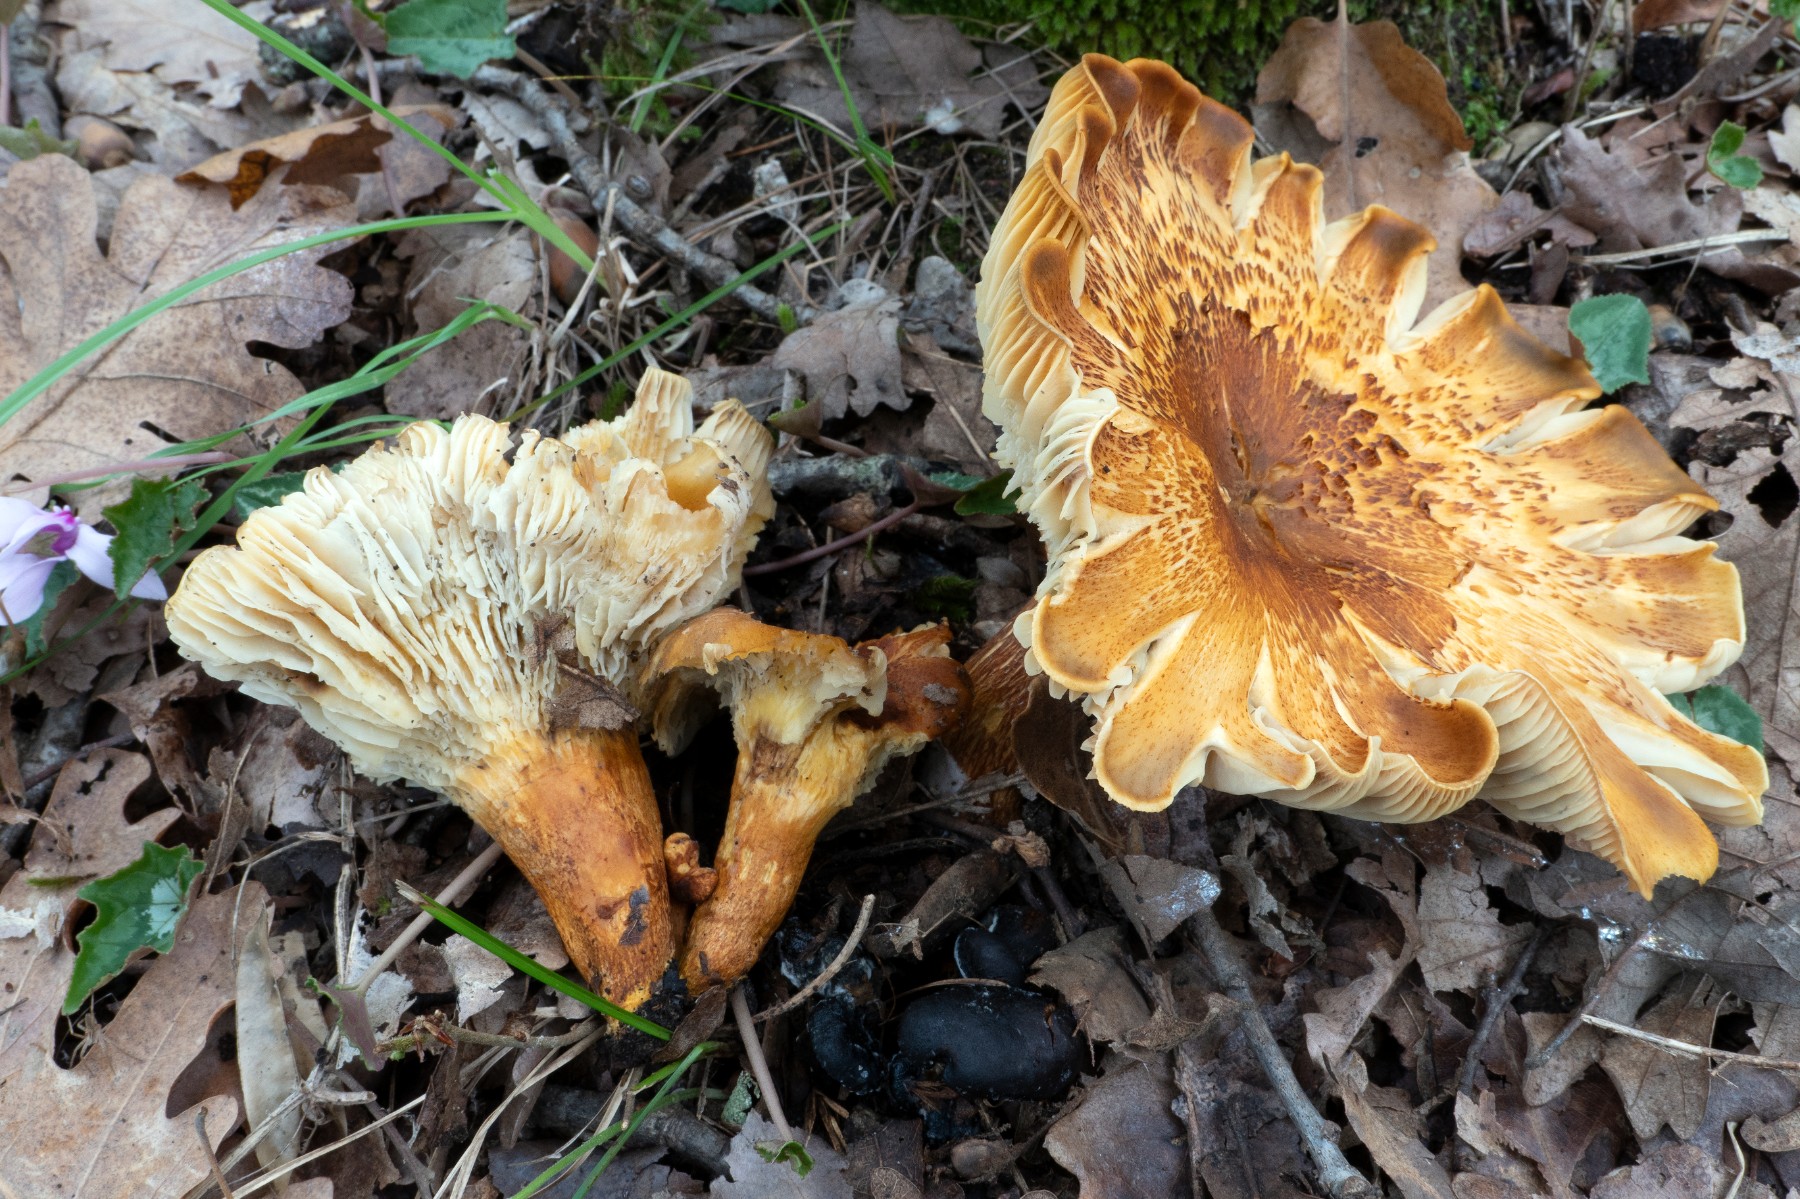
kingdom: Fungi
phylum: Basidiomycota
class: Agaricomycetes
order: Agaricales
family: Omphalotaceae
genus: Omphalotus
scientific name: Omphalotus olearius
